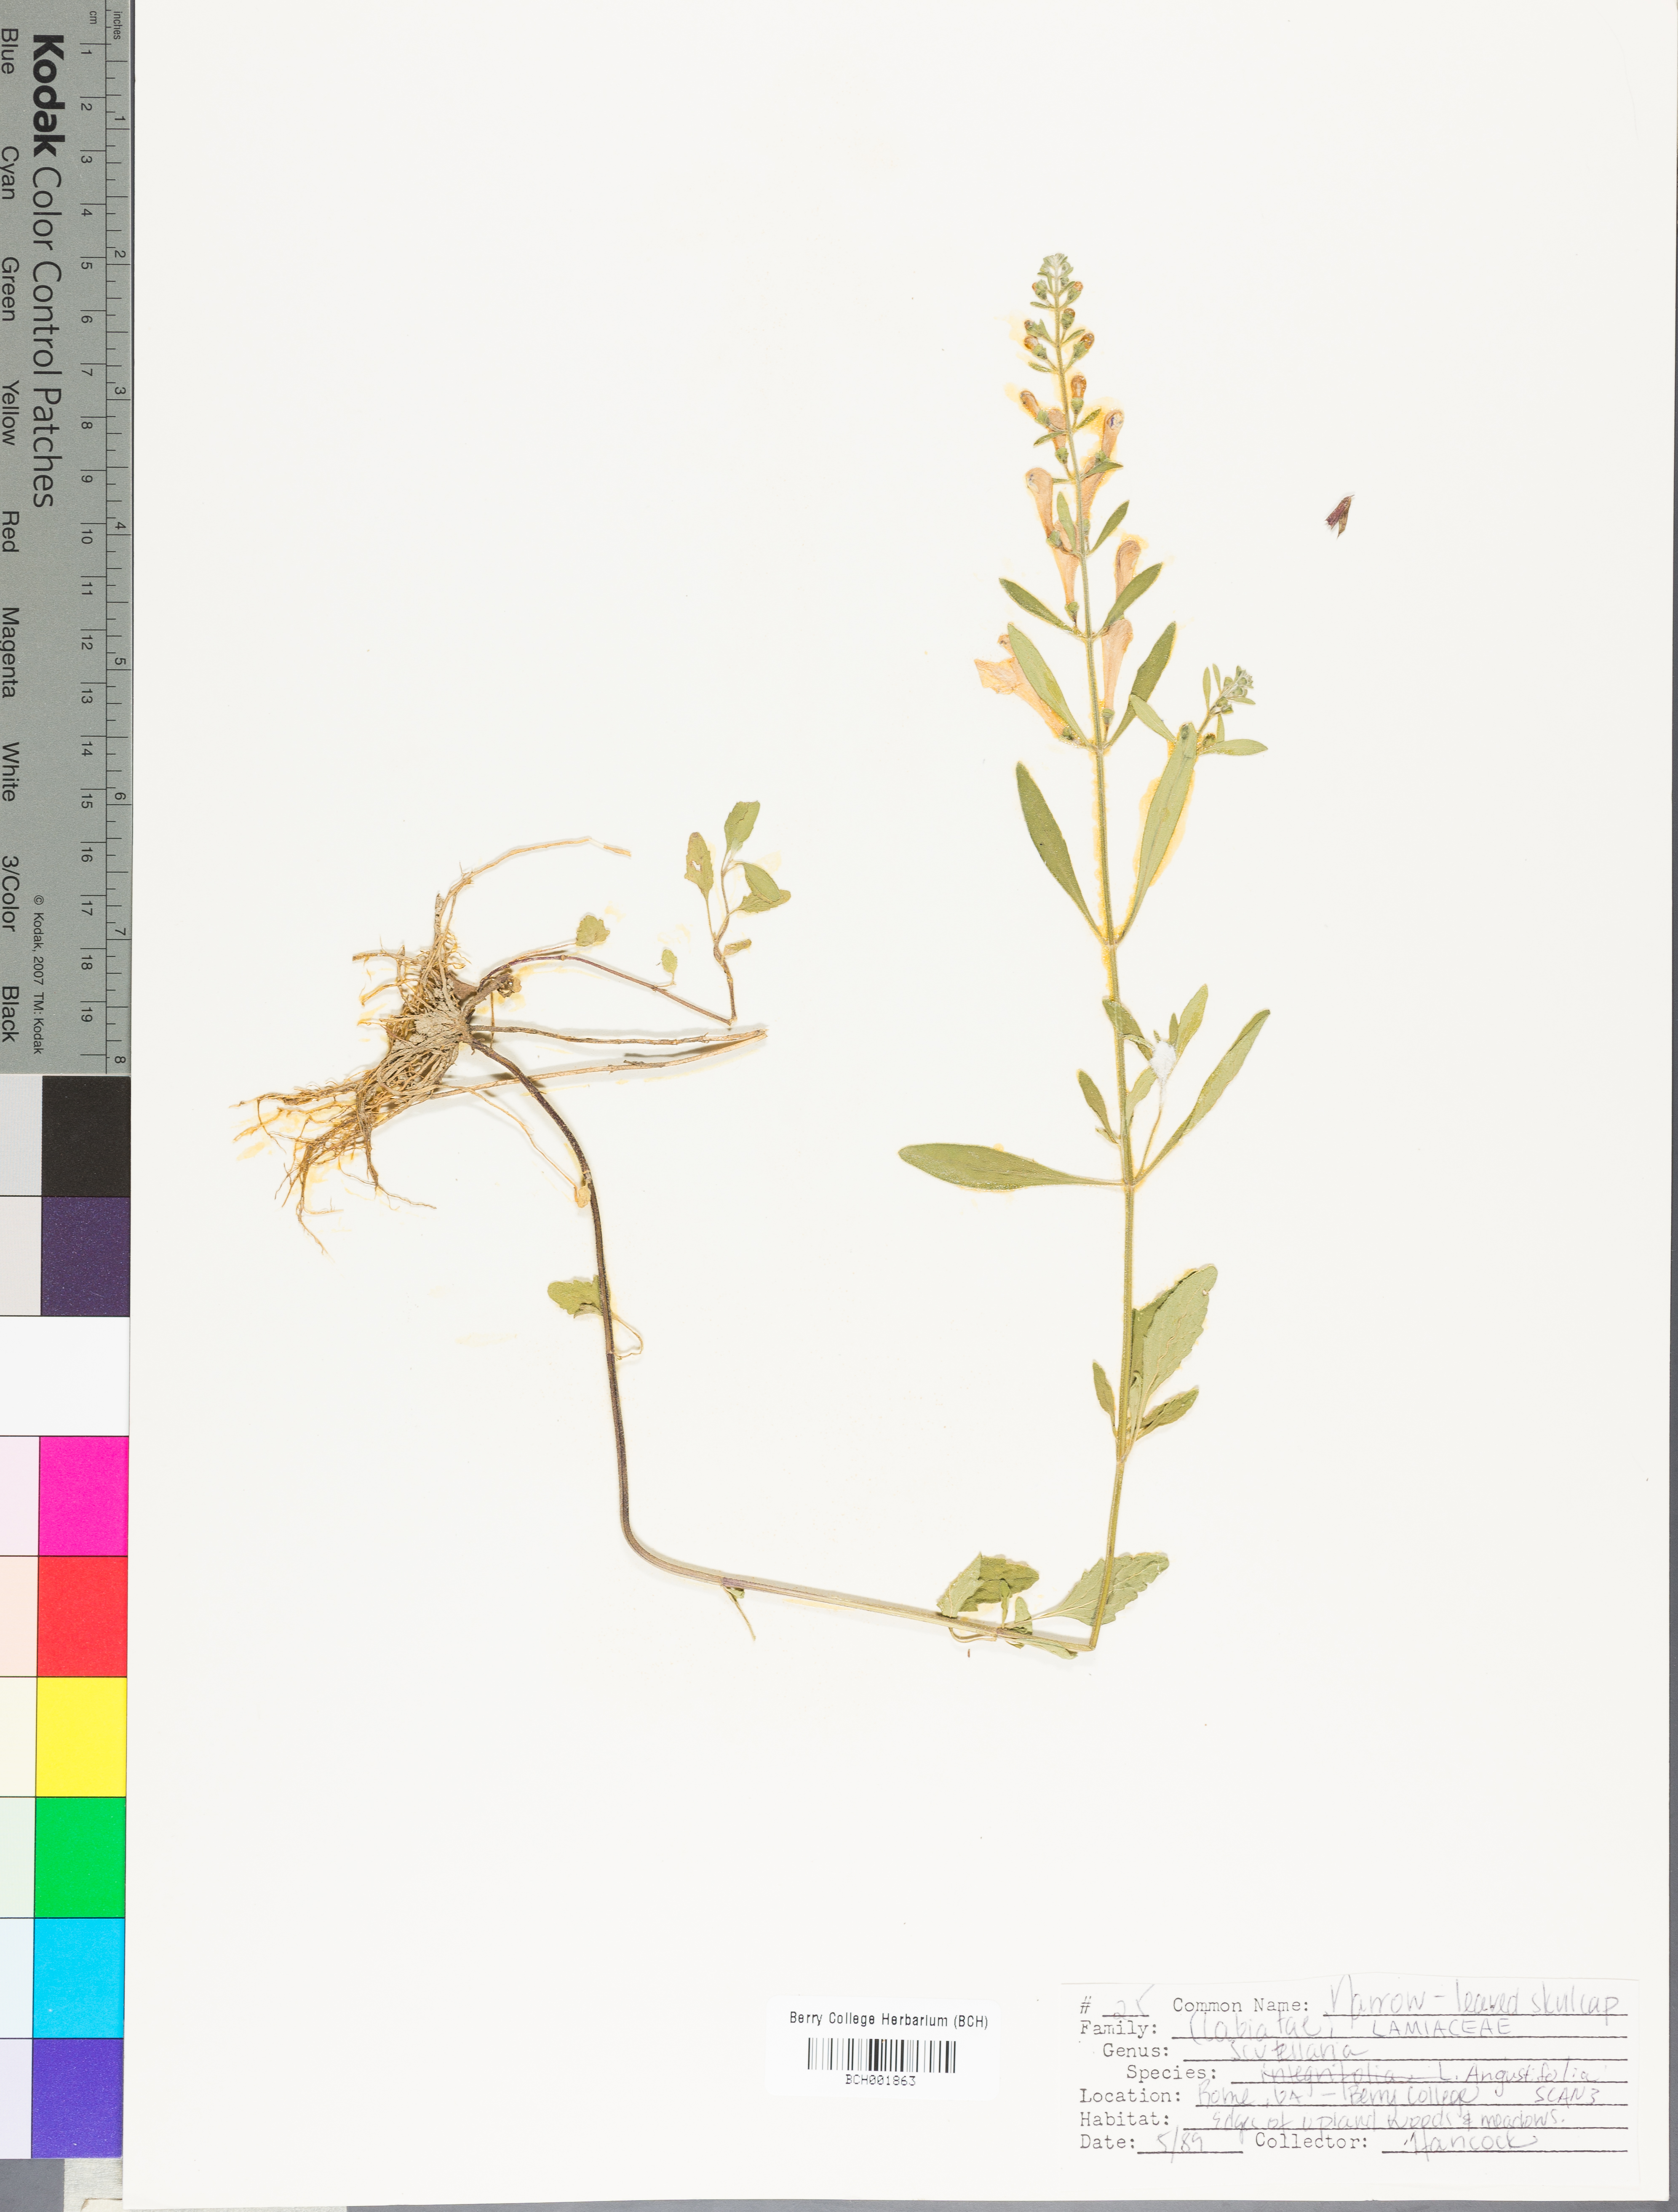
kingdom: Plantae
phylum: Tracheophyta
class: Magnoliopsida
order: Lamiales
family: Lamiaceae
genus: Scutellaria
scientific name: Scutellaria angustifolia
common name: Narrow-leaved skullcap
